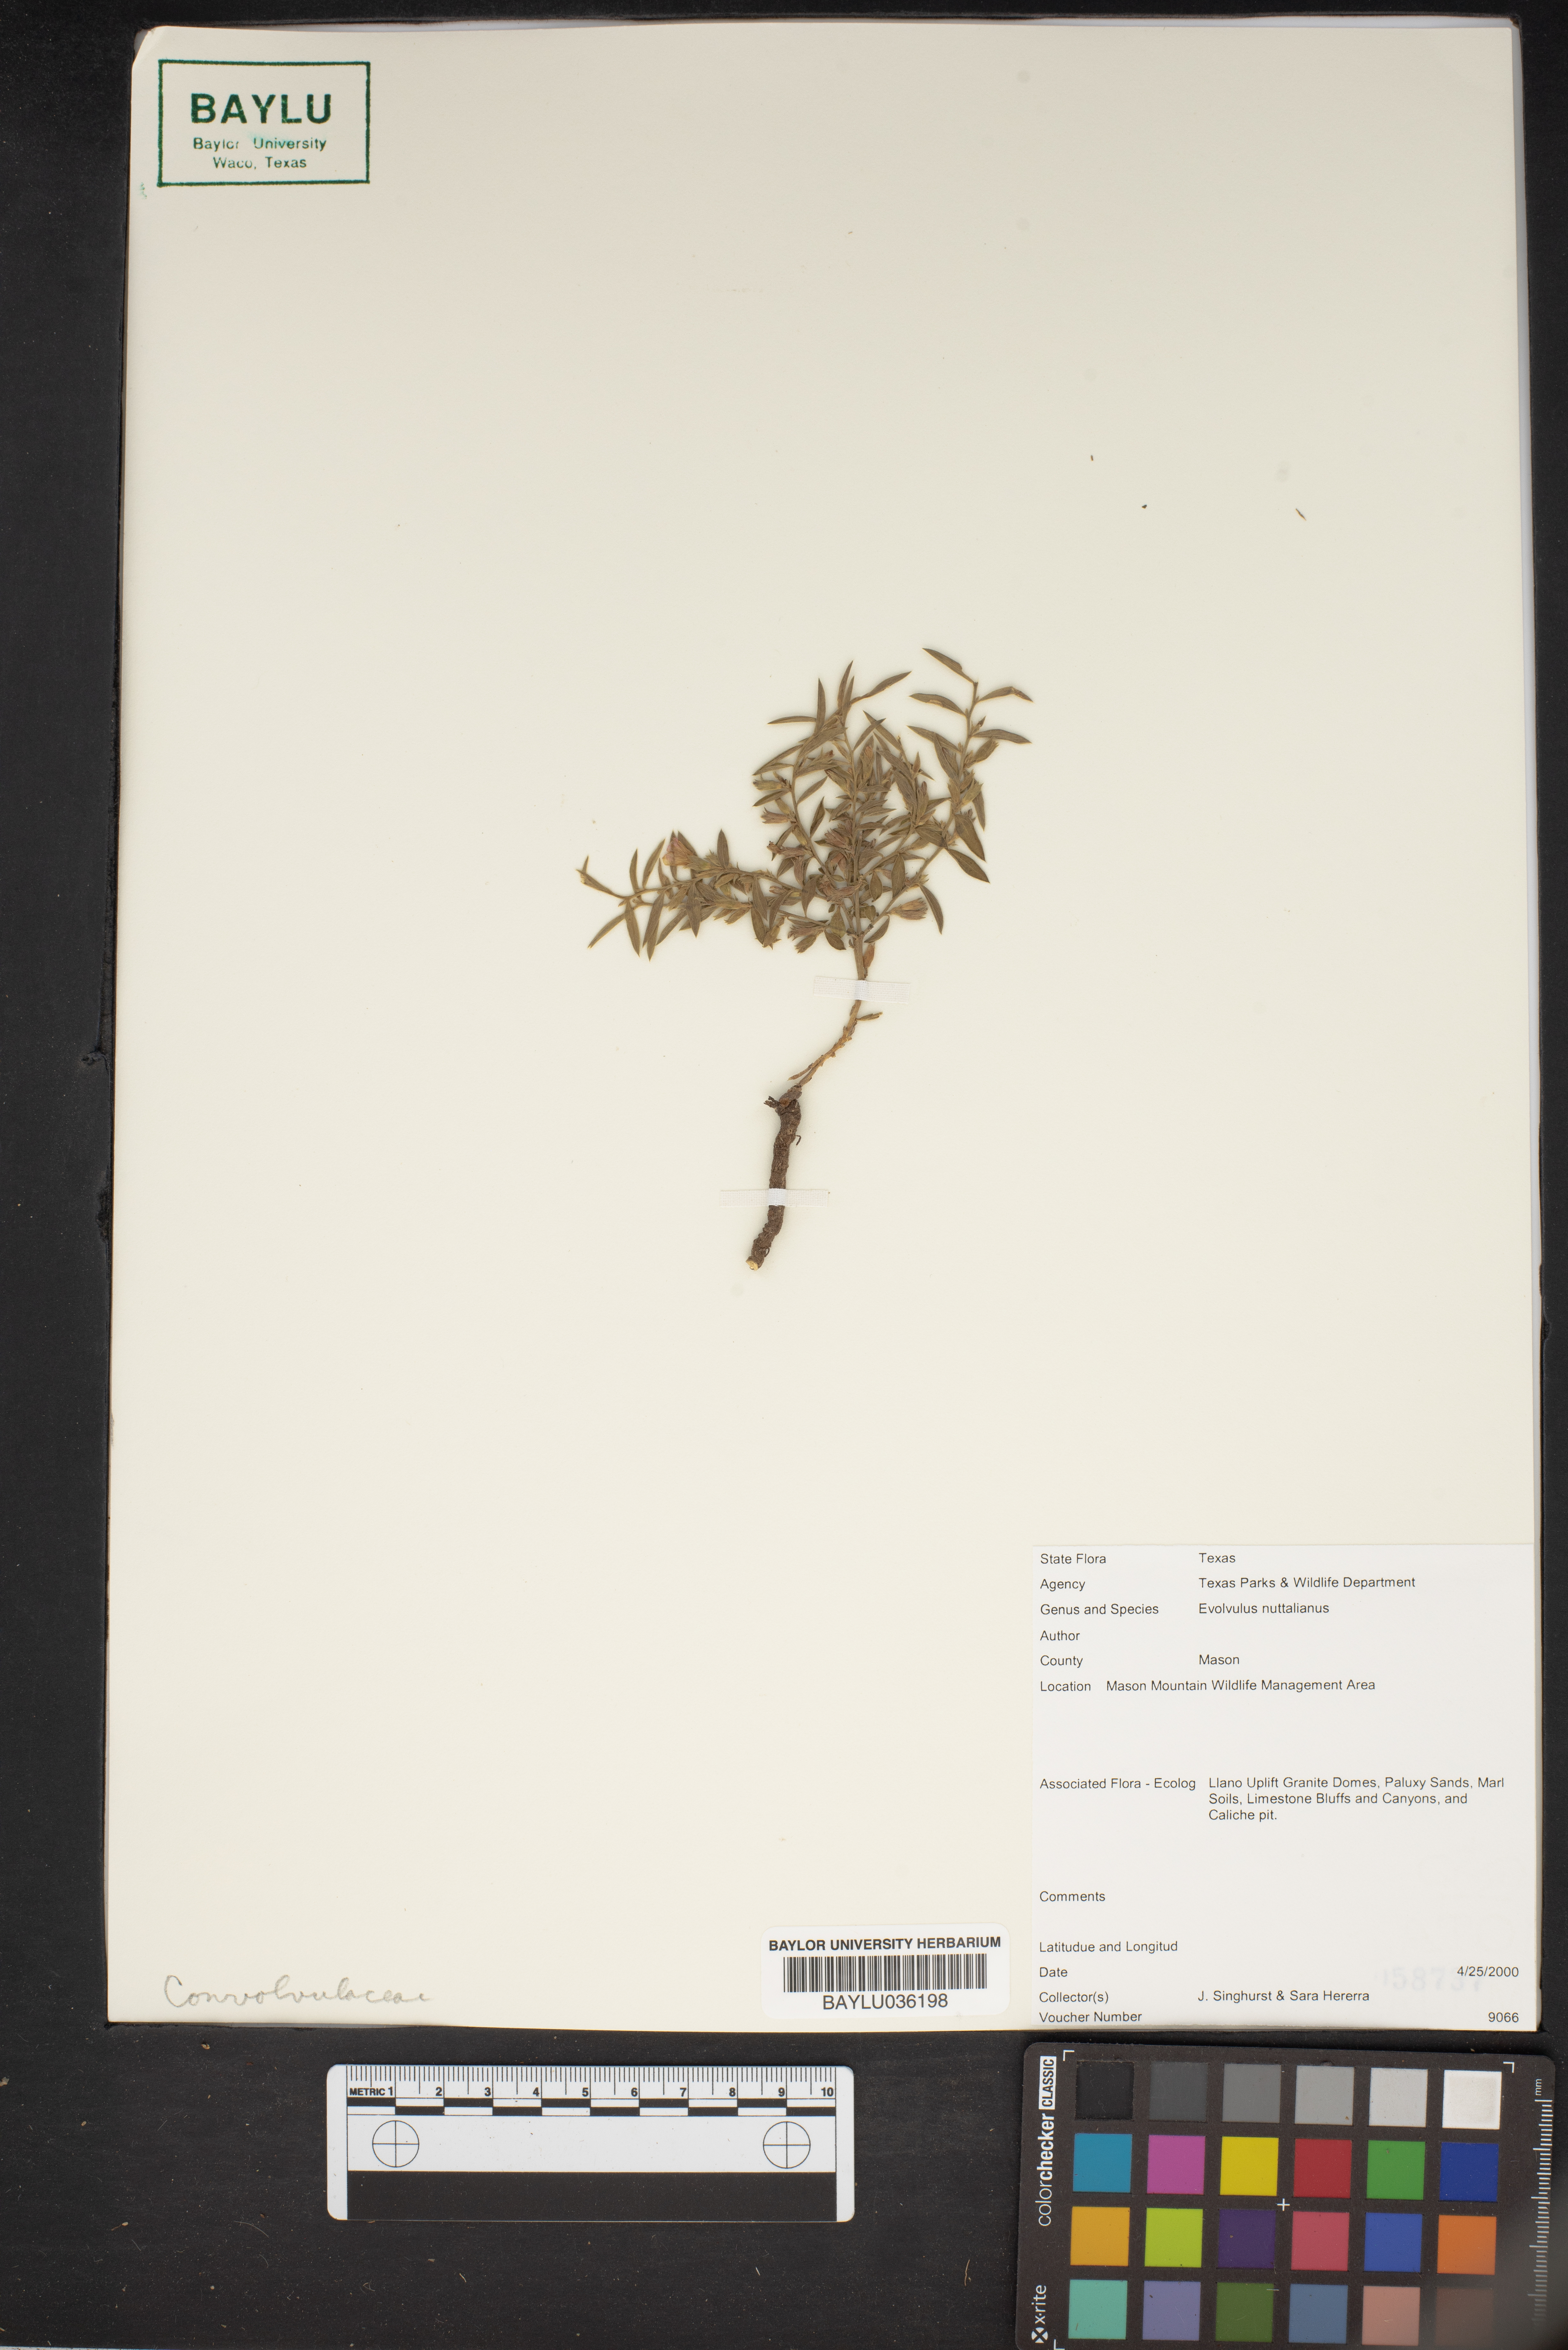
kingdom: Plantae
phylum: Tracheophyta
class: Magnoliopsida
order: Solanales
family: Convolvulaceae
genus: Evolvulus
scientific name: Evolvulus nuttallianus
